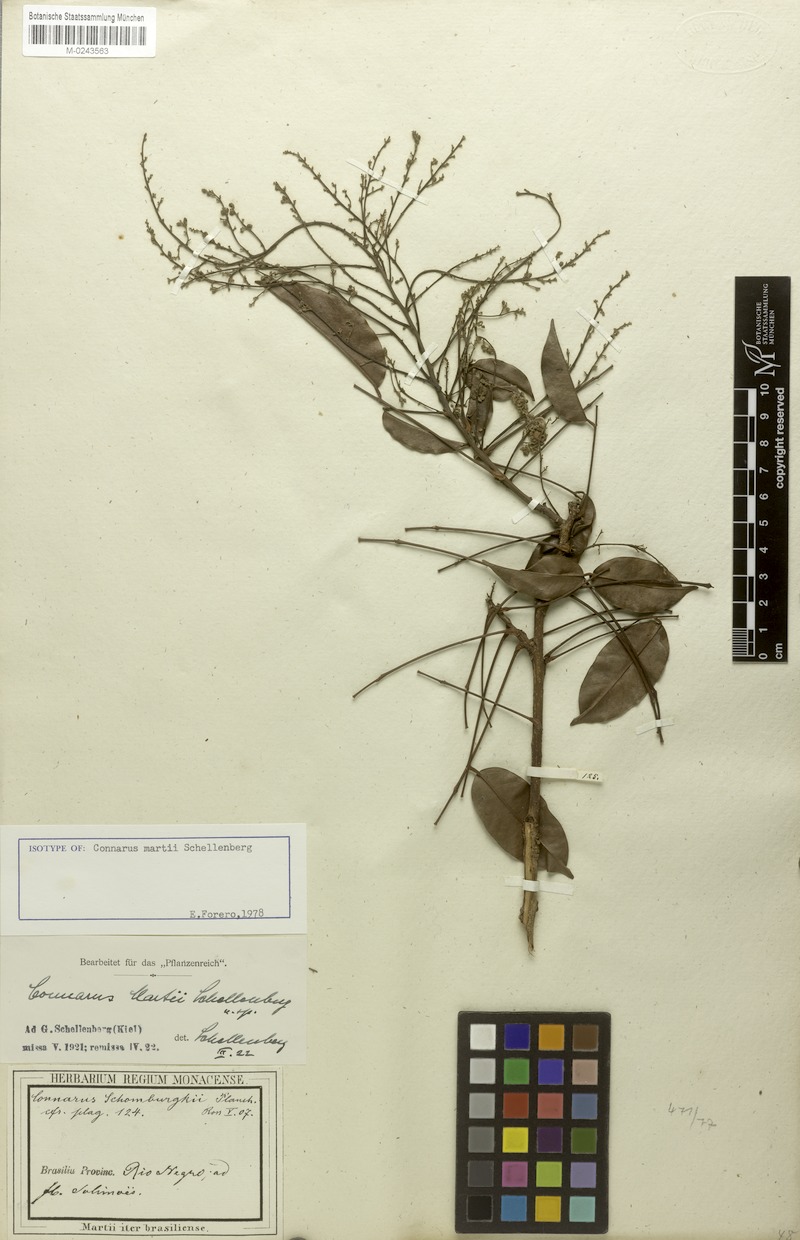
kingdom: Plantae
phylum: Tracheophyta
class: Magnoliopsida
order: Oxalidales
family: Connaraceae
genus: Connarus
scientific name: Connarus martii
